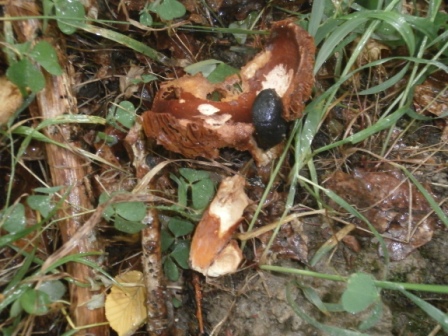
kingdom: Fungi
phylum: Basidiomycota
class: Agaricomycetes
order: Russulales
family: Russulaceae
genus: Lactifluus
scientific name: Lactifluus volemus
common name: spiselig mælkehat
